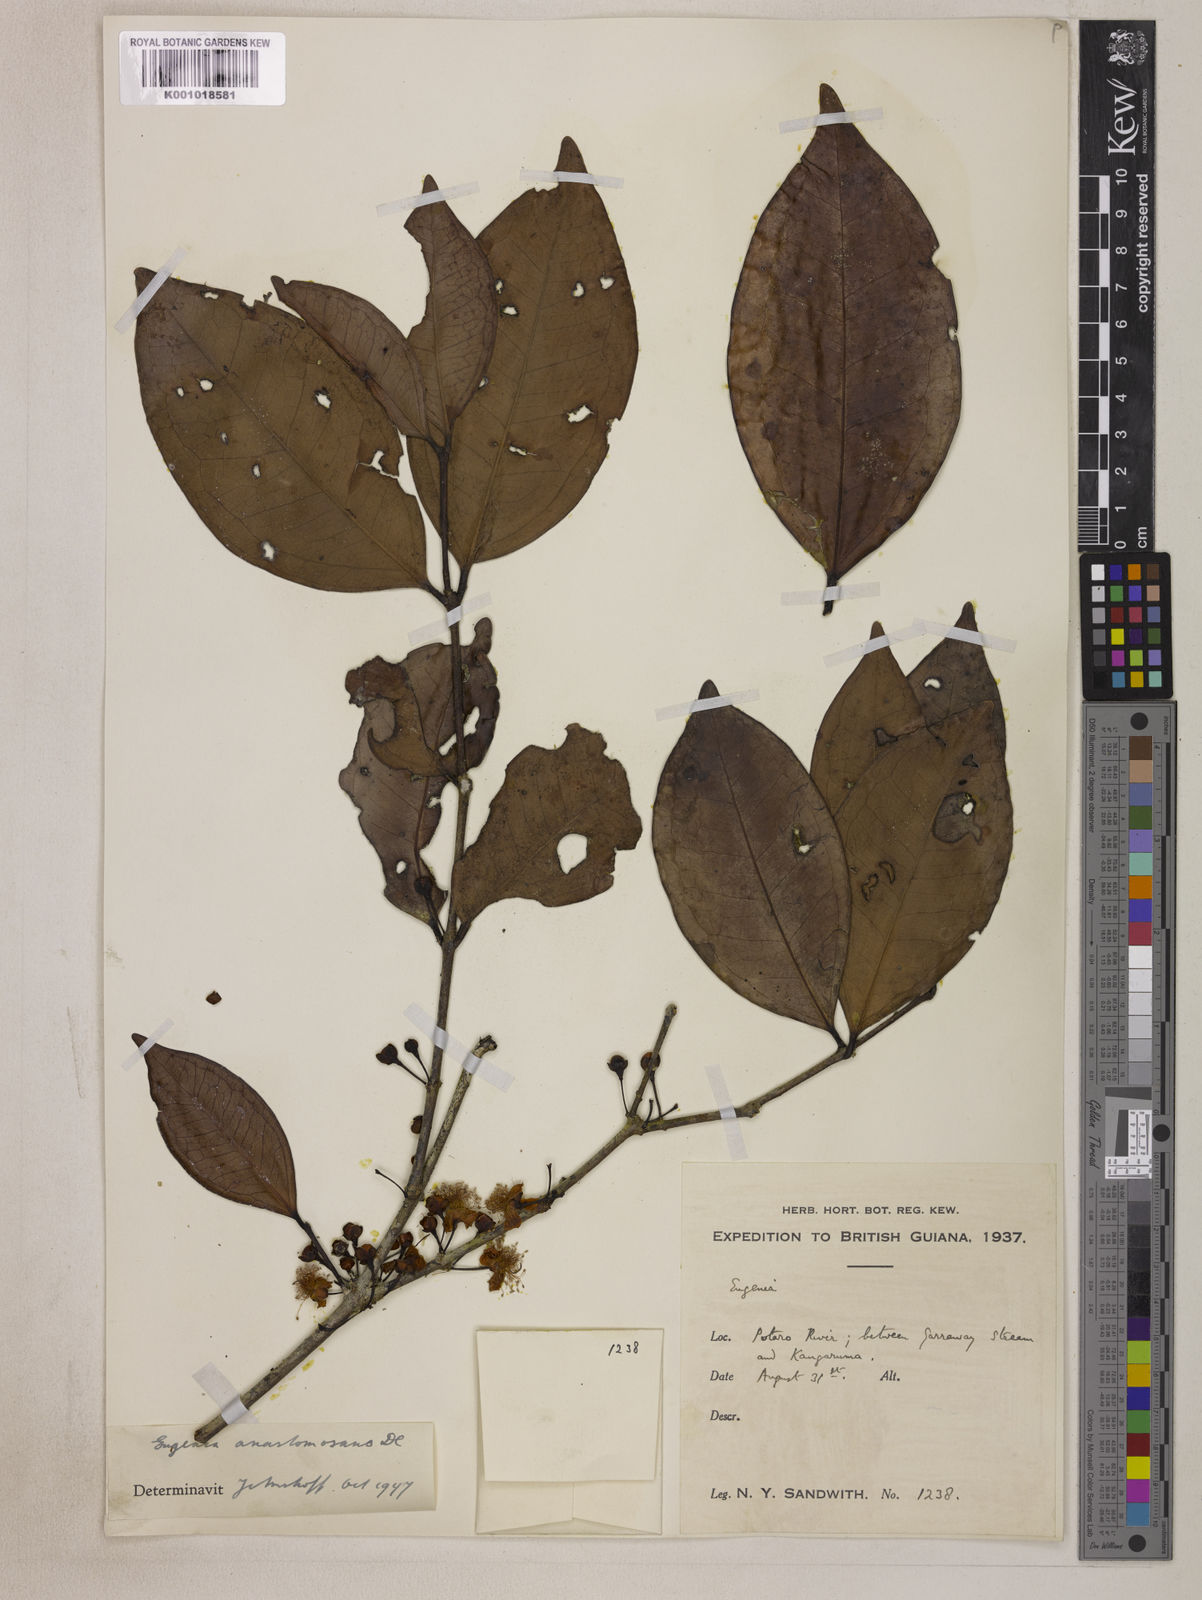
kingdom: Plantae
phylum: Tracheophyta
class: Magnoliopsida
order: Myrtales
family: Myrtaceae
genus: Eugenia
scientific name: Eugenia anastomosans
